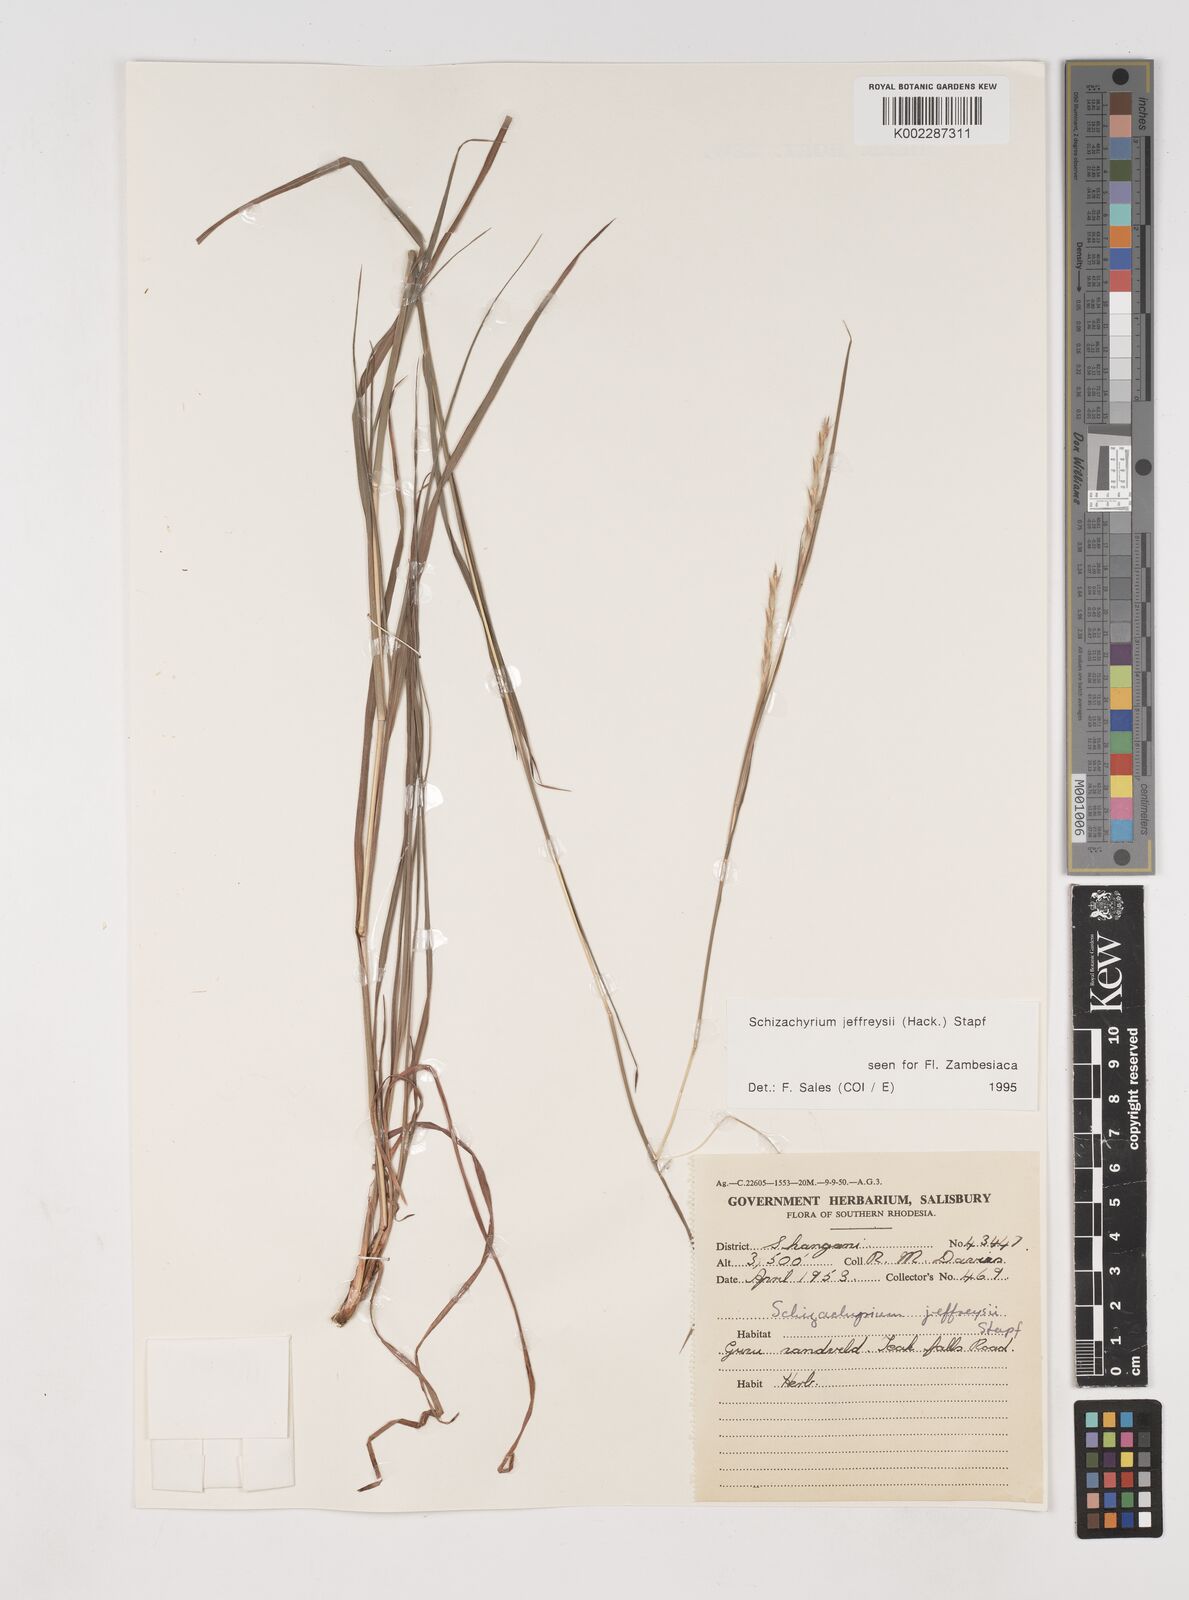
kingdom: Plantae
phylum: Tracheophyta
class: Liliopsida
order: Poales
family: Poaceae
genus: Schizachyrium
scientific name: Schizachyrium jeffreysii
